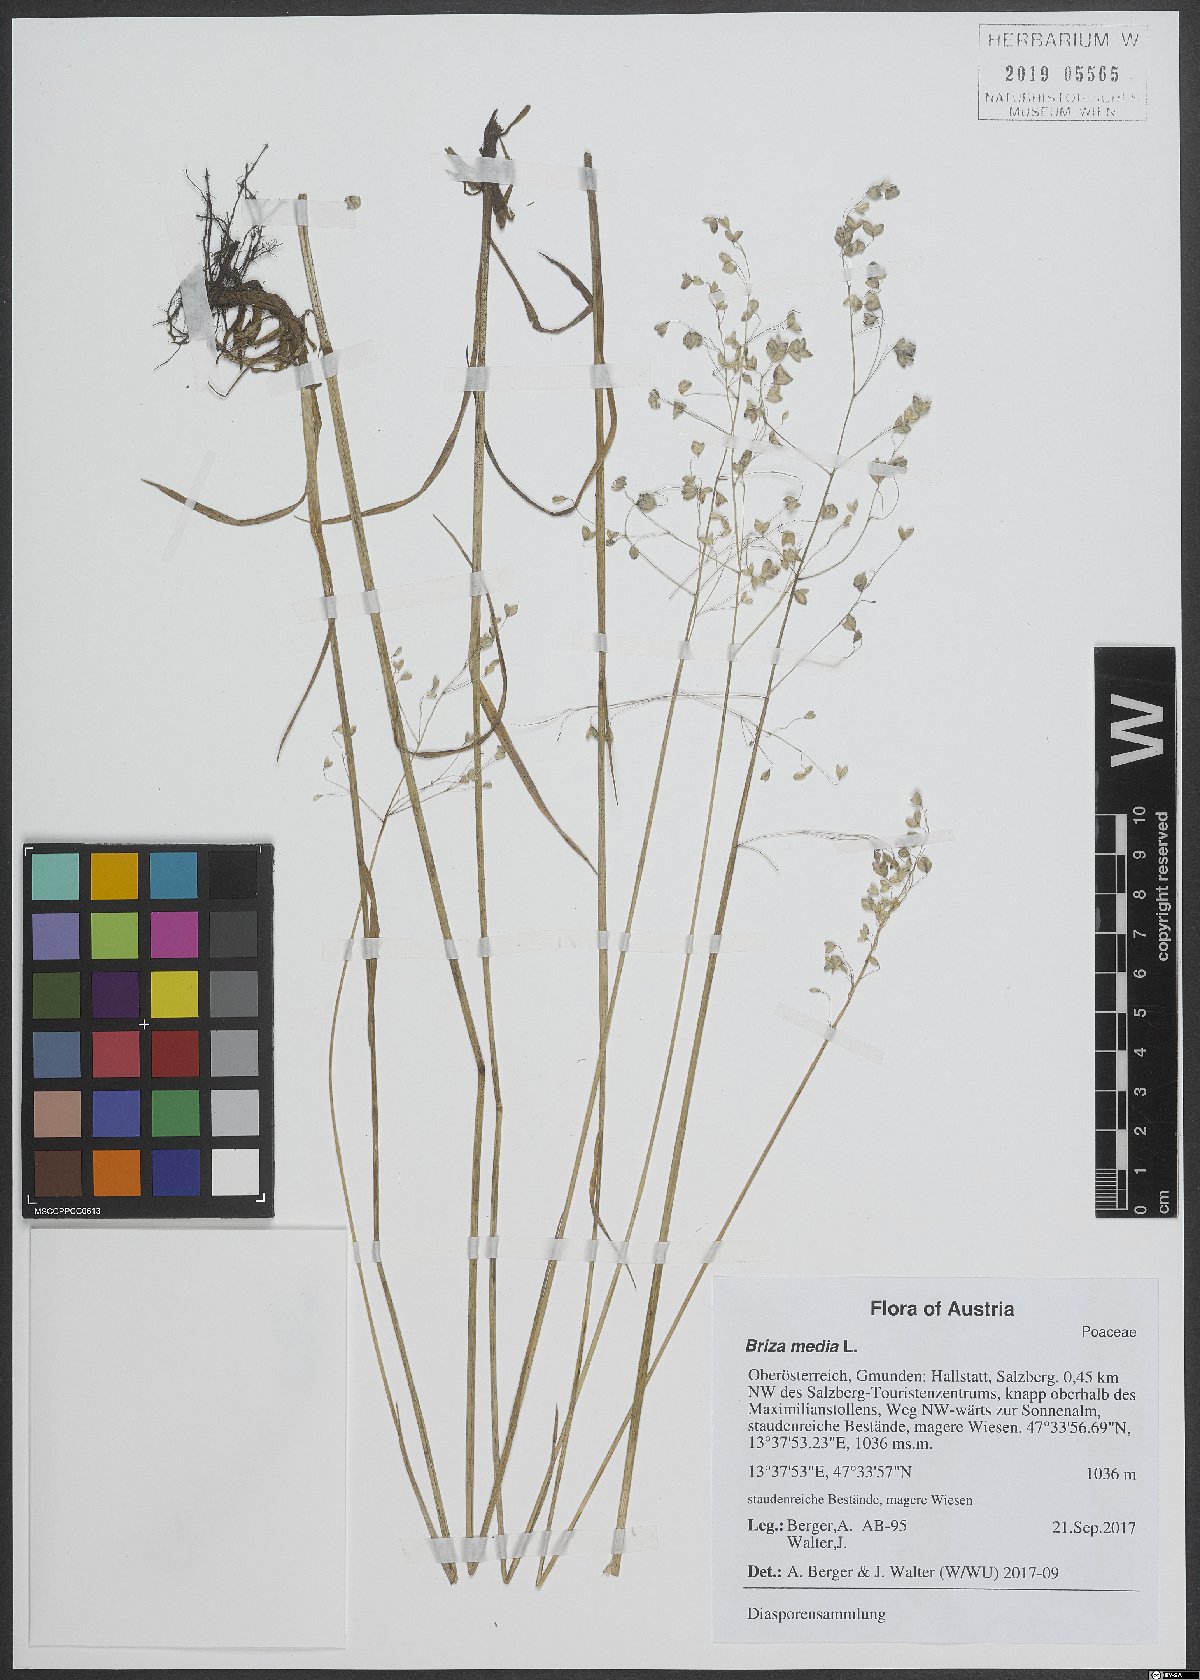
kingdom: Plantae
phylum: Tracheophyta
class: Liliopsida
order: Poales
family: Poaceae
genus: Briza
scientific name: Briza media
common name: Quaking grass
